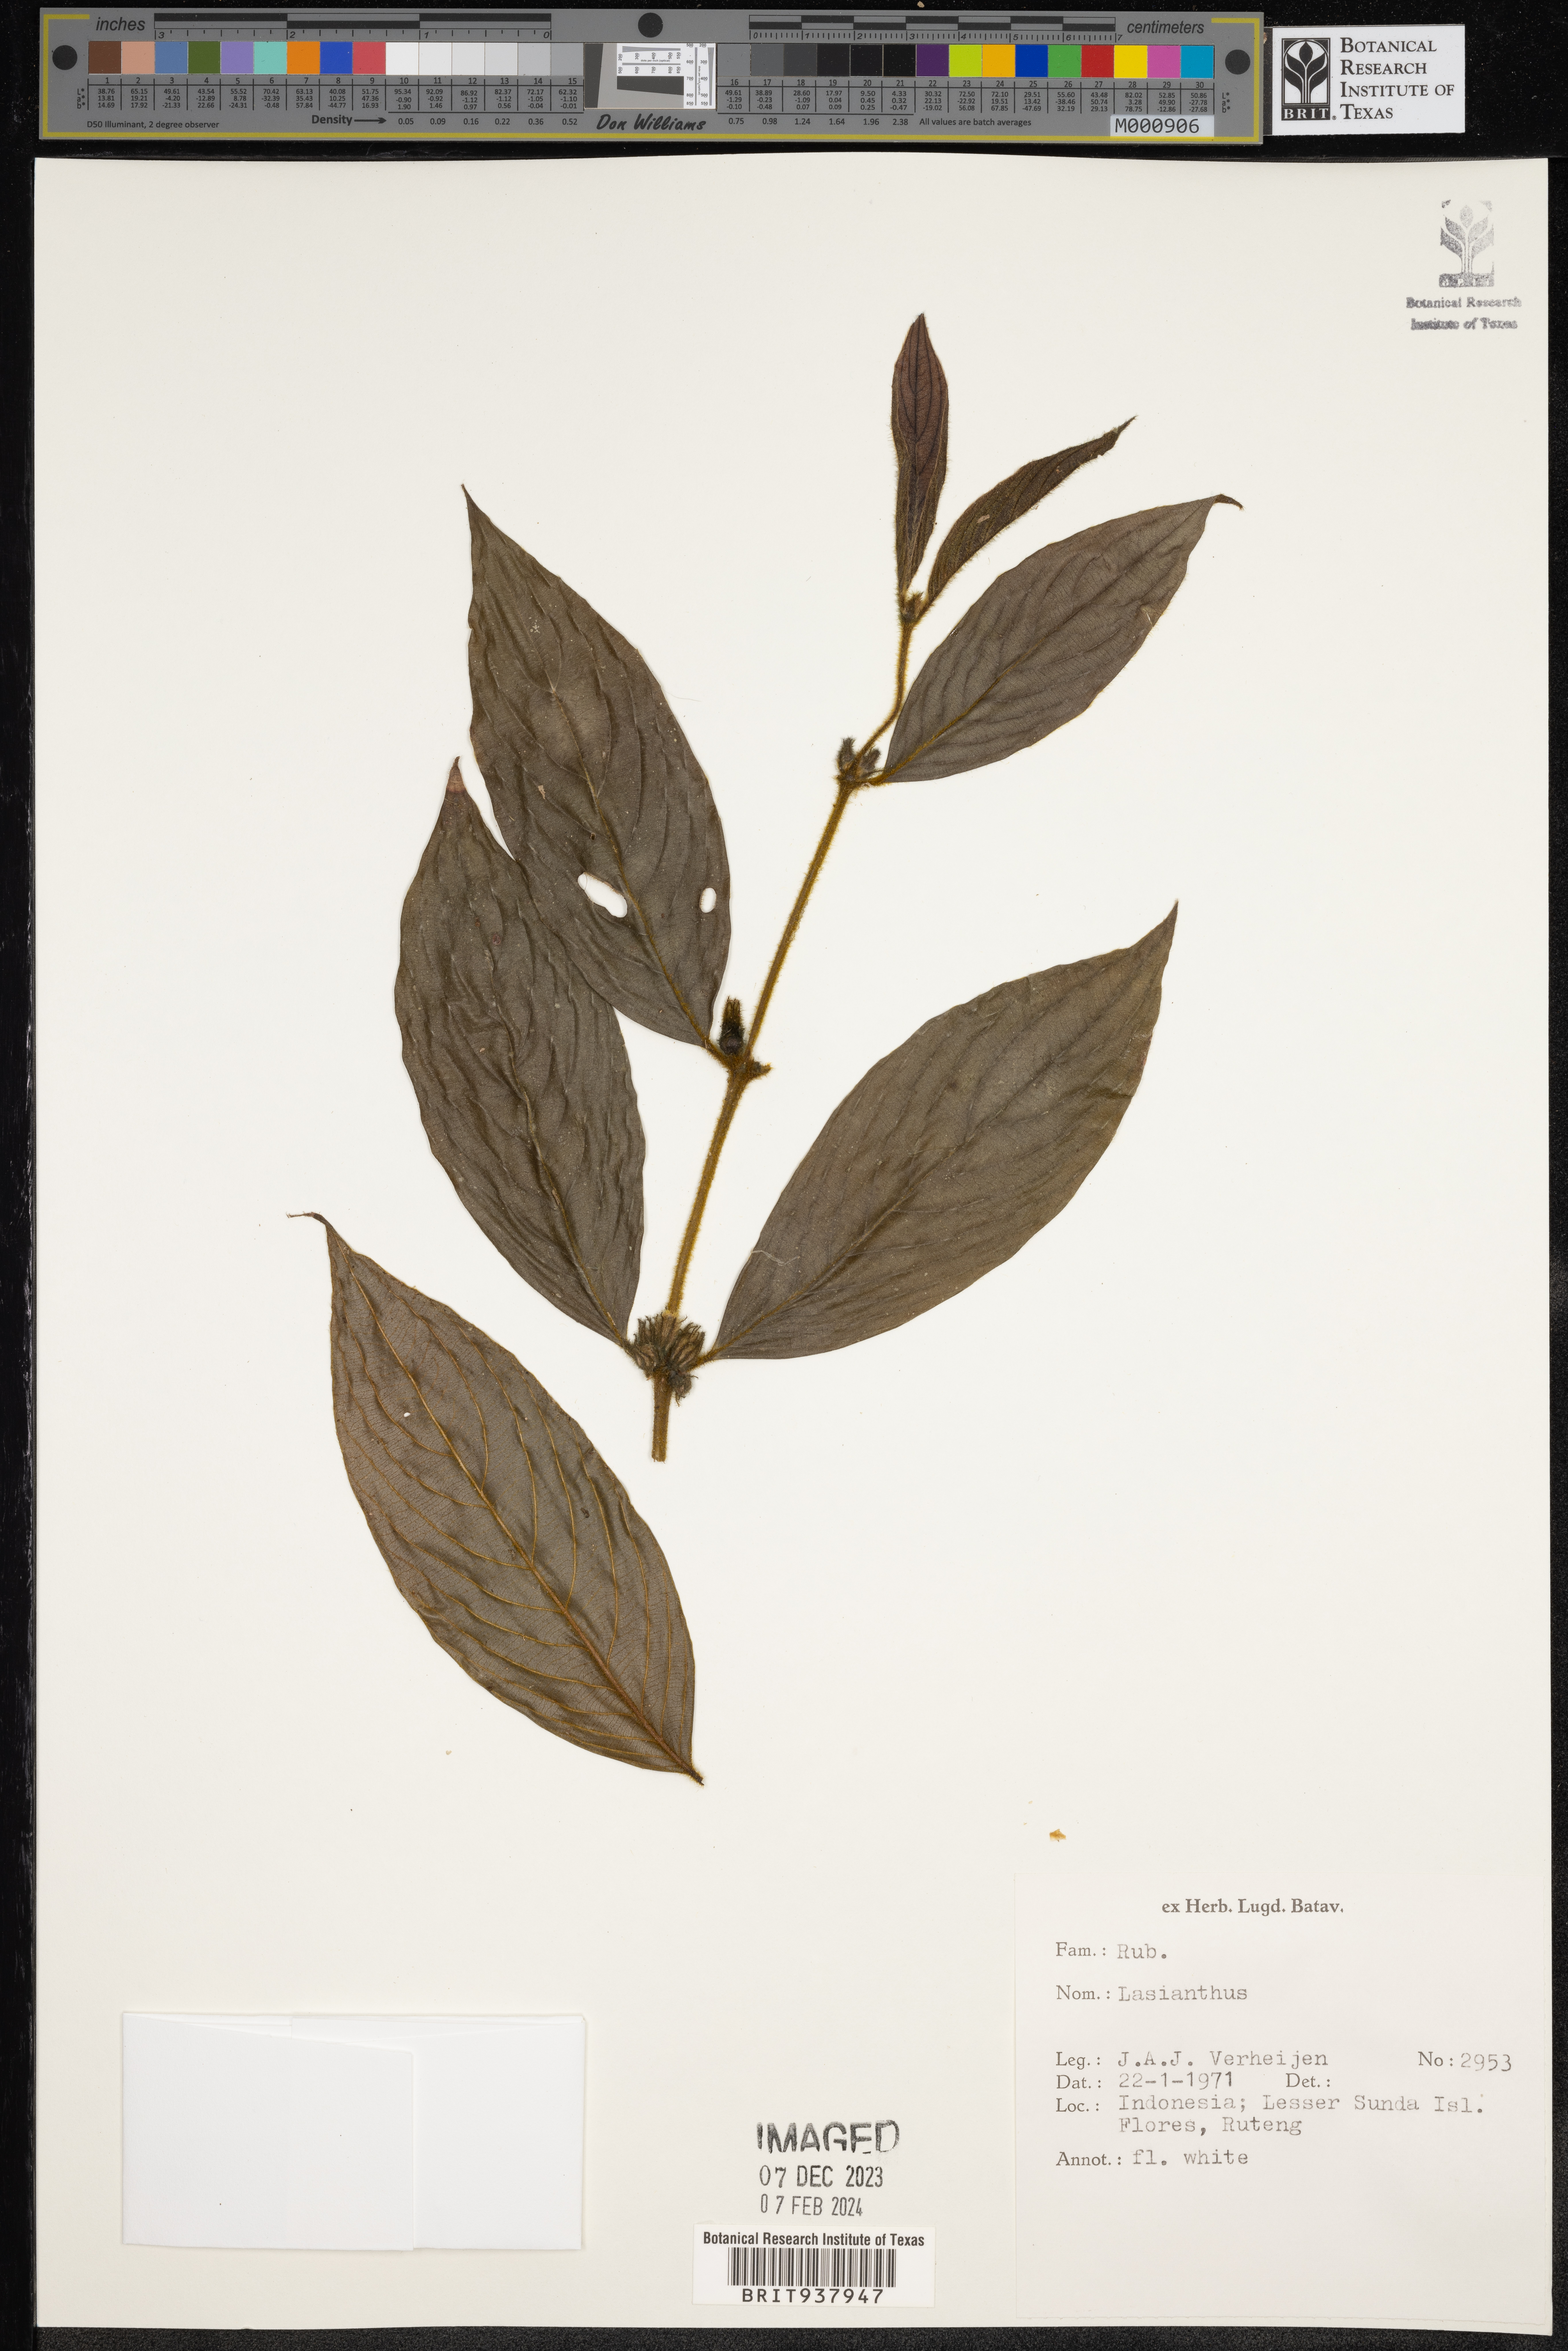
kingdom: Plantae
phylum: Tracheophyta
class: Magnoliopsida
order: Gentianales
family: Rubiaceae
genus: Lasianthus
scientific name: Lasianthus
